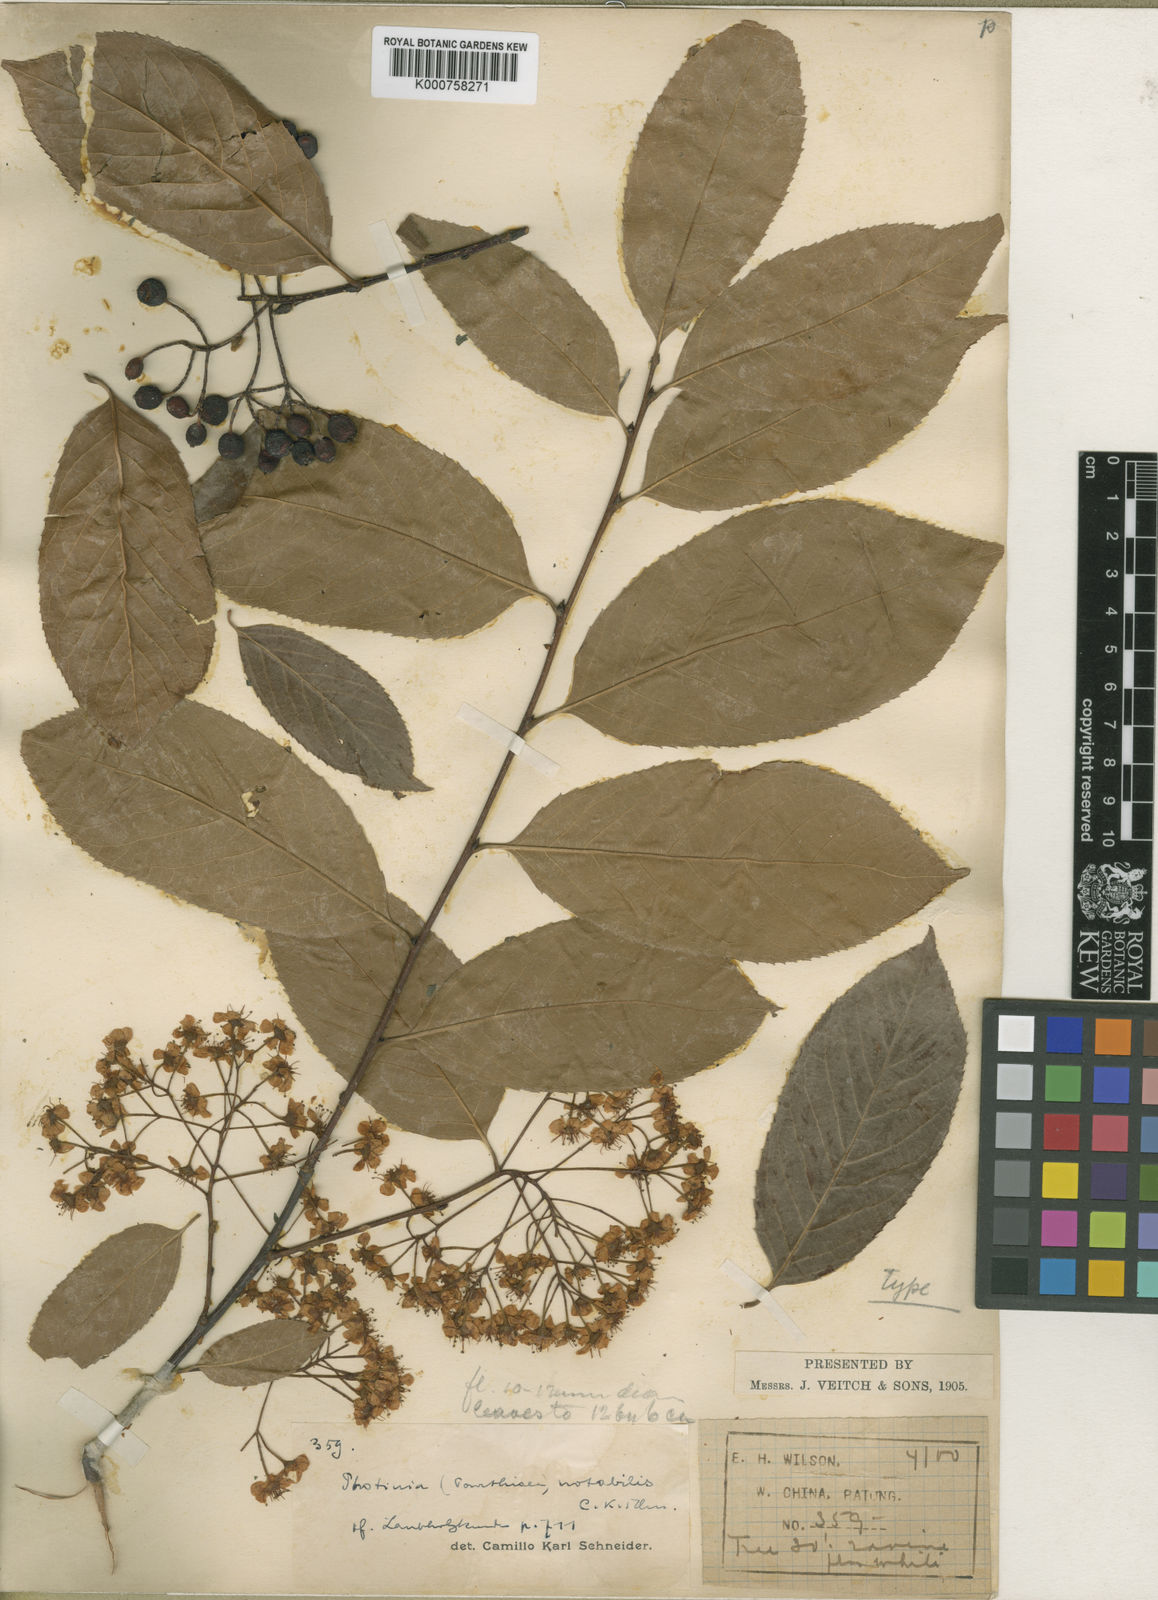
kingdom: Plantae
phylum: Tracheophyta
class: Magnoliopsida
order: Rosales
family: Rosaceae
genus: Pourthiaea
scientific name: Pourthiaea beauverdiana
